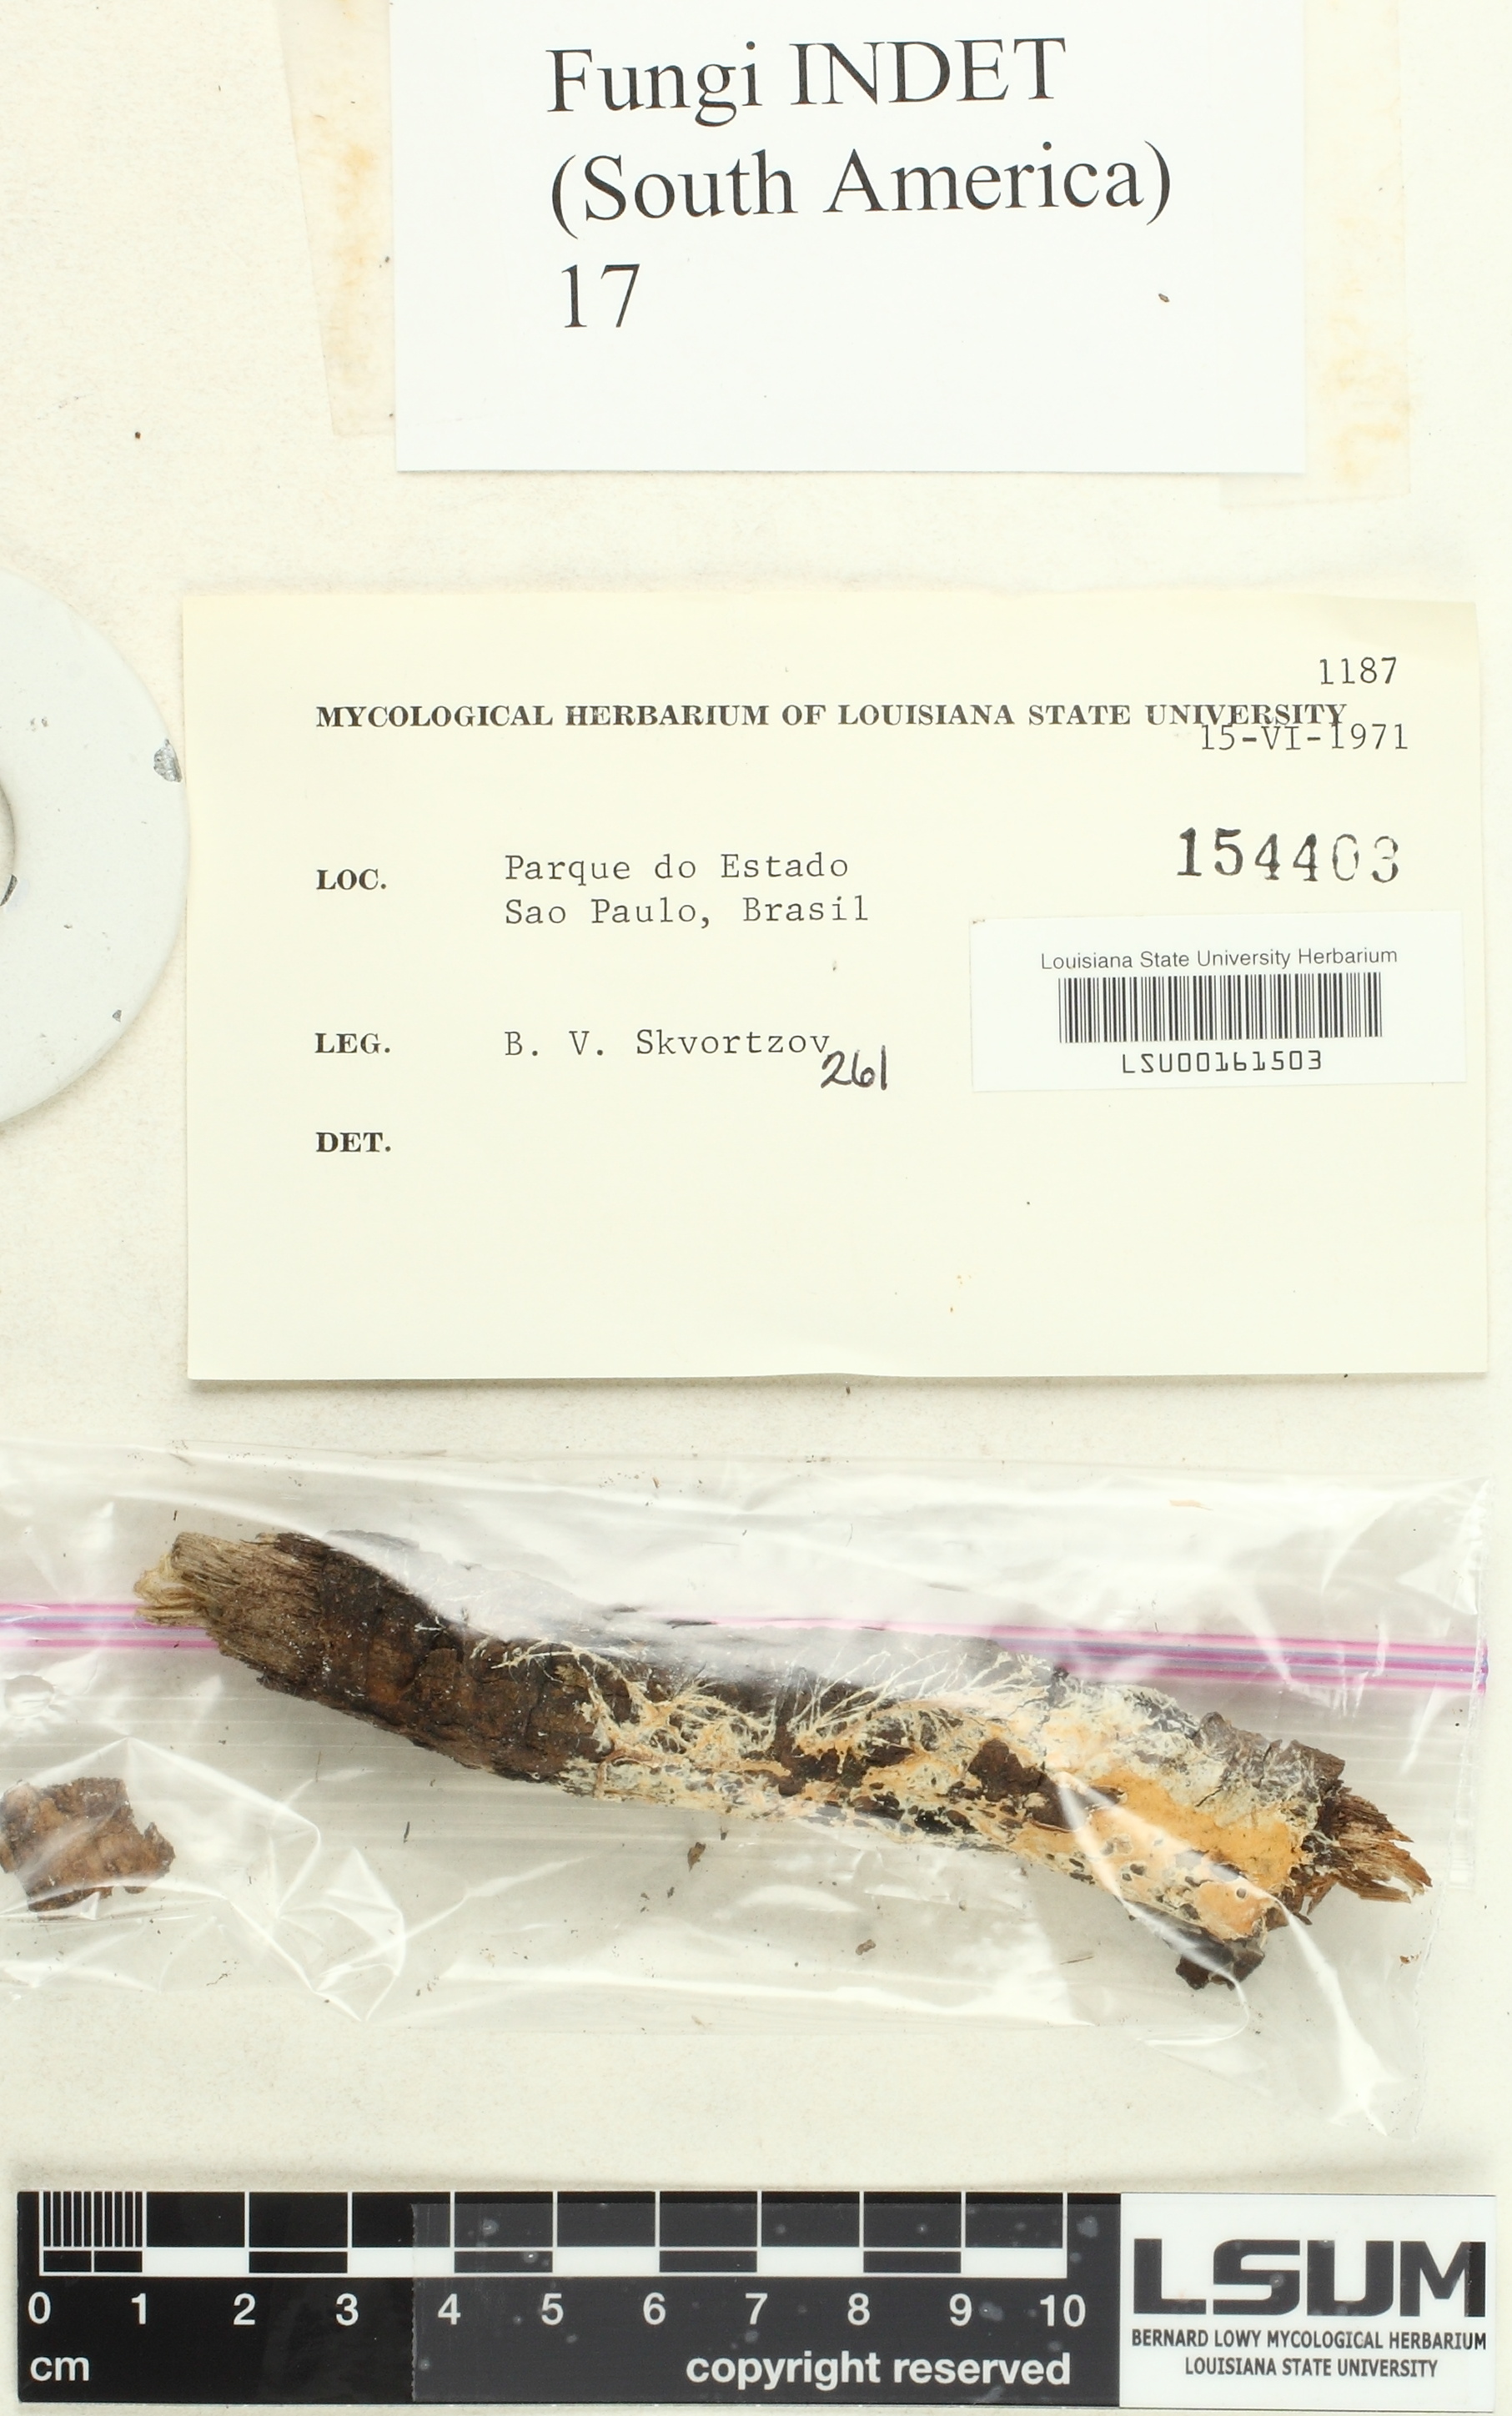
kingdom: Fungi
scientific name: Fungi
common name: Fungi
